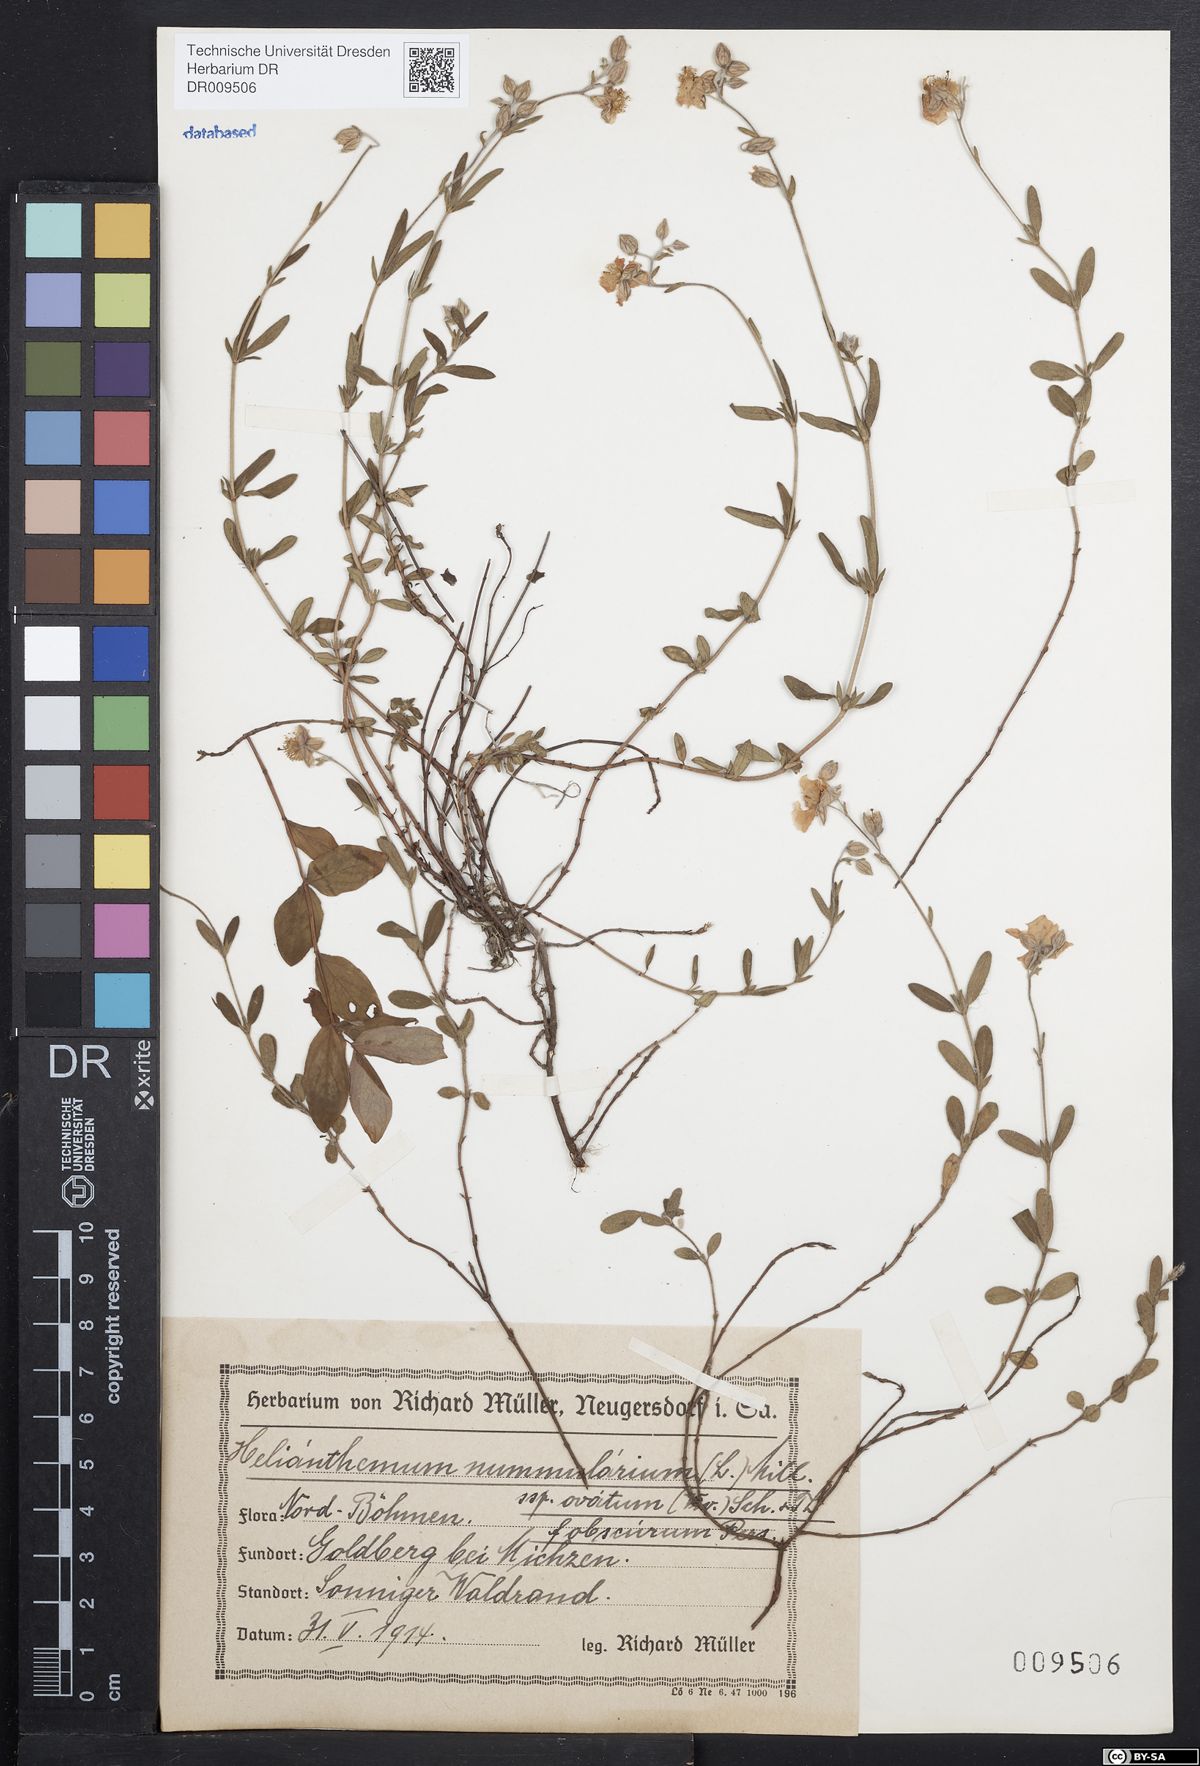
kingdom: Plantae
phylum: Tracheophyta
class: Magnoliopsida
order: Malvales
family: Cistaceae
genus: Helianthemum
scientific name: Helianthemum nummularium
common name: Common rock-rose
